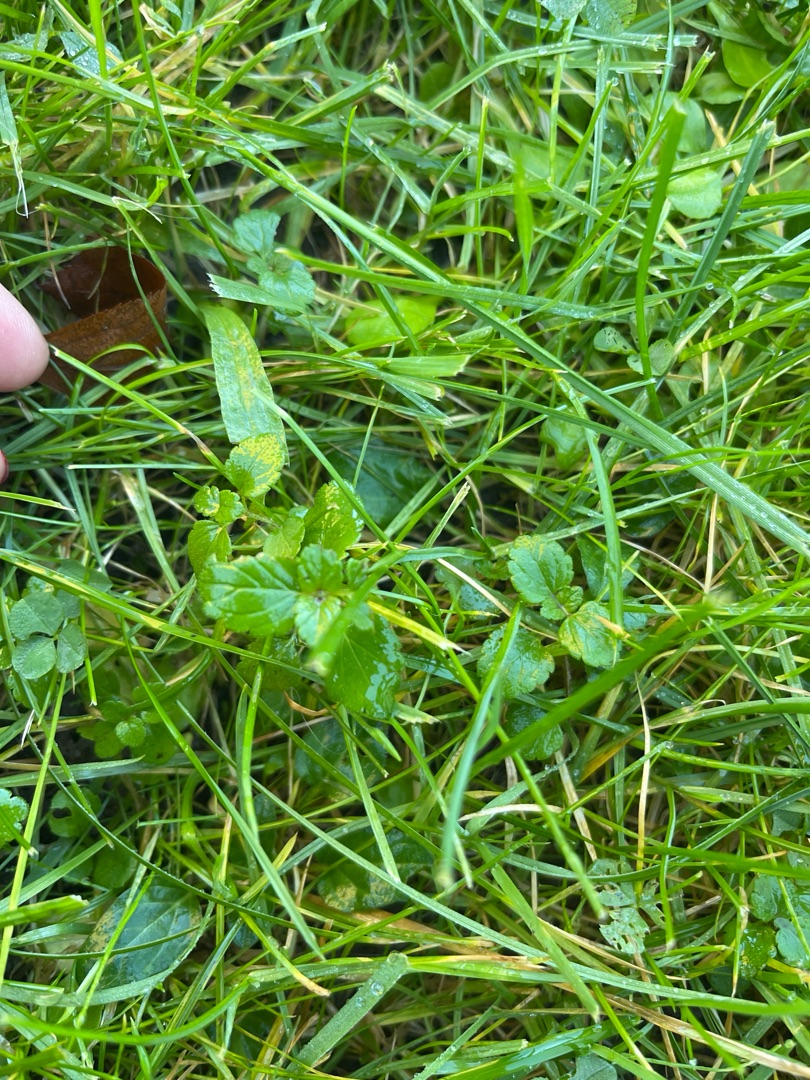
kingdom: Plantae
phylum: Tracheophyta
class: Magnoliopsida
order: Lamiales
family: Plantaginaceae
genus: Veronica
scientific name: Veronica chamaedrys
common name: Tveskægget ærenpris
